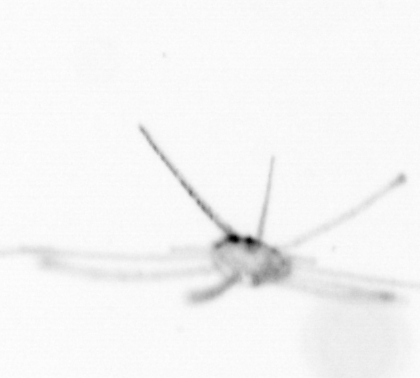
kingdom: Animalia
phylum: Cnidaria
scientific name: Cnidaria
